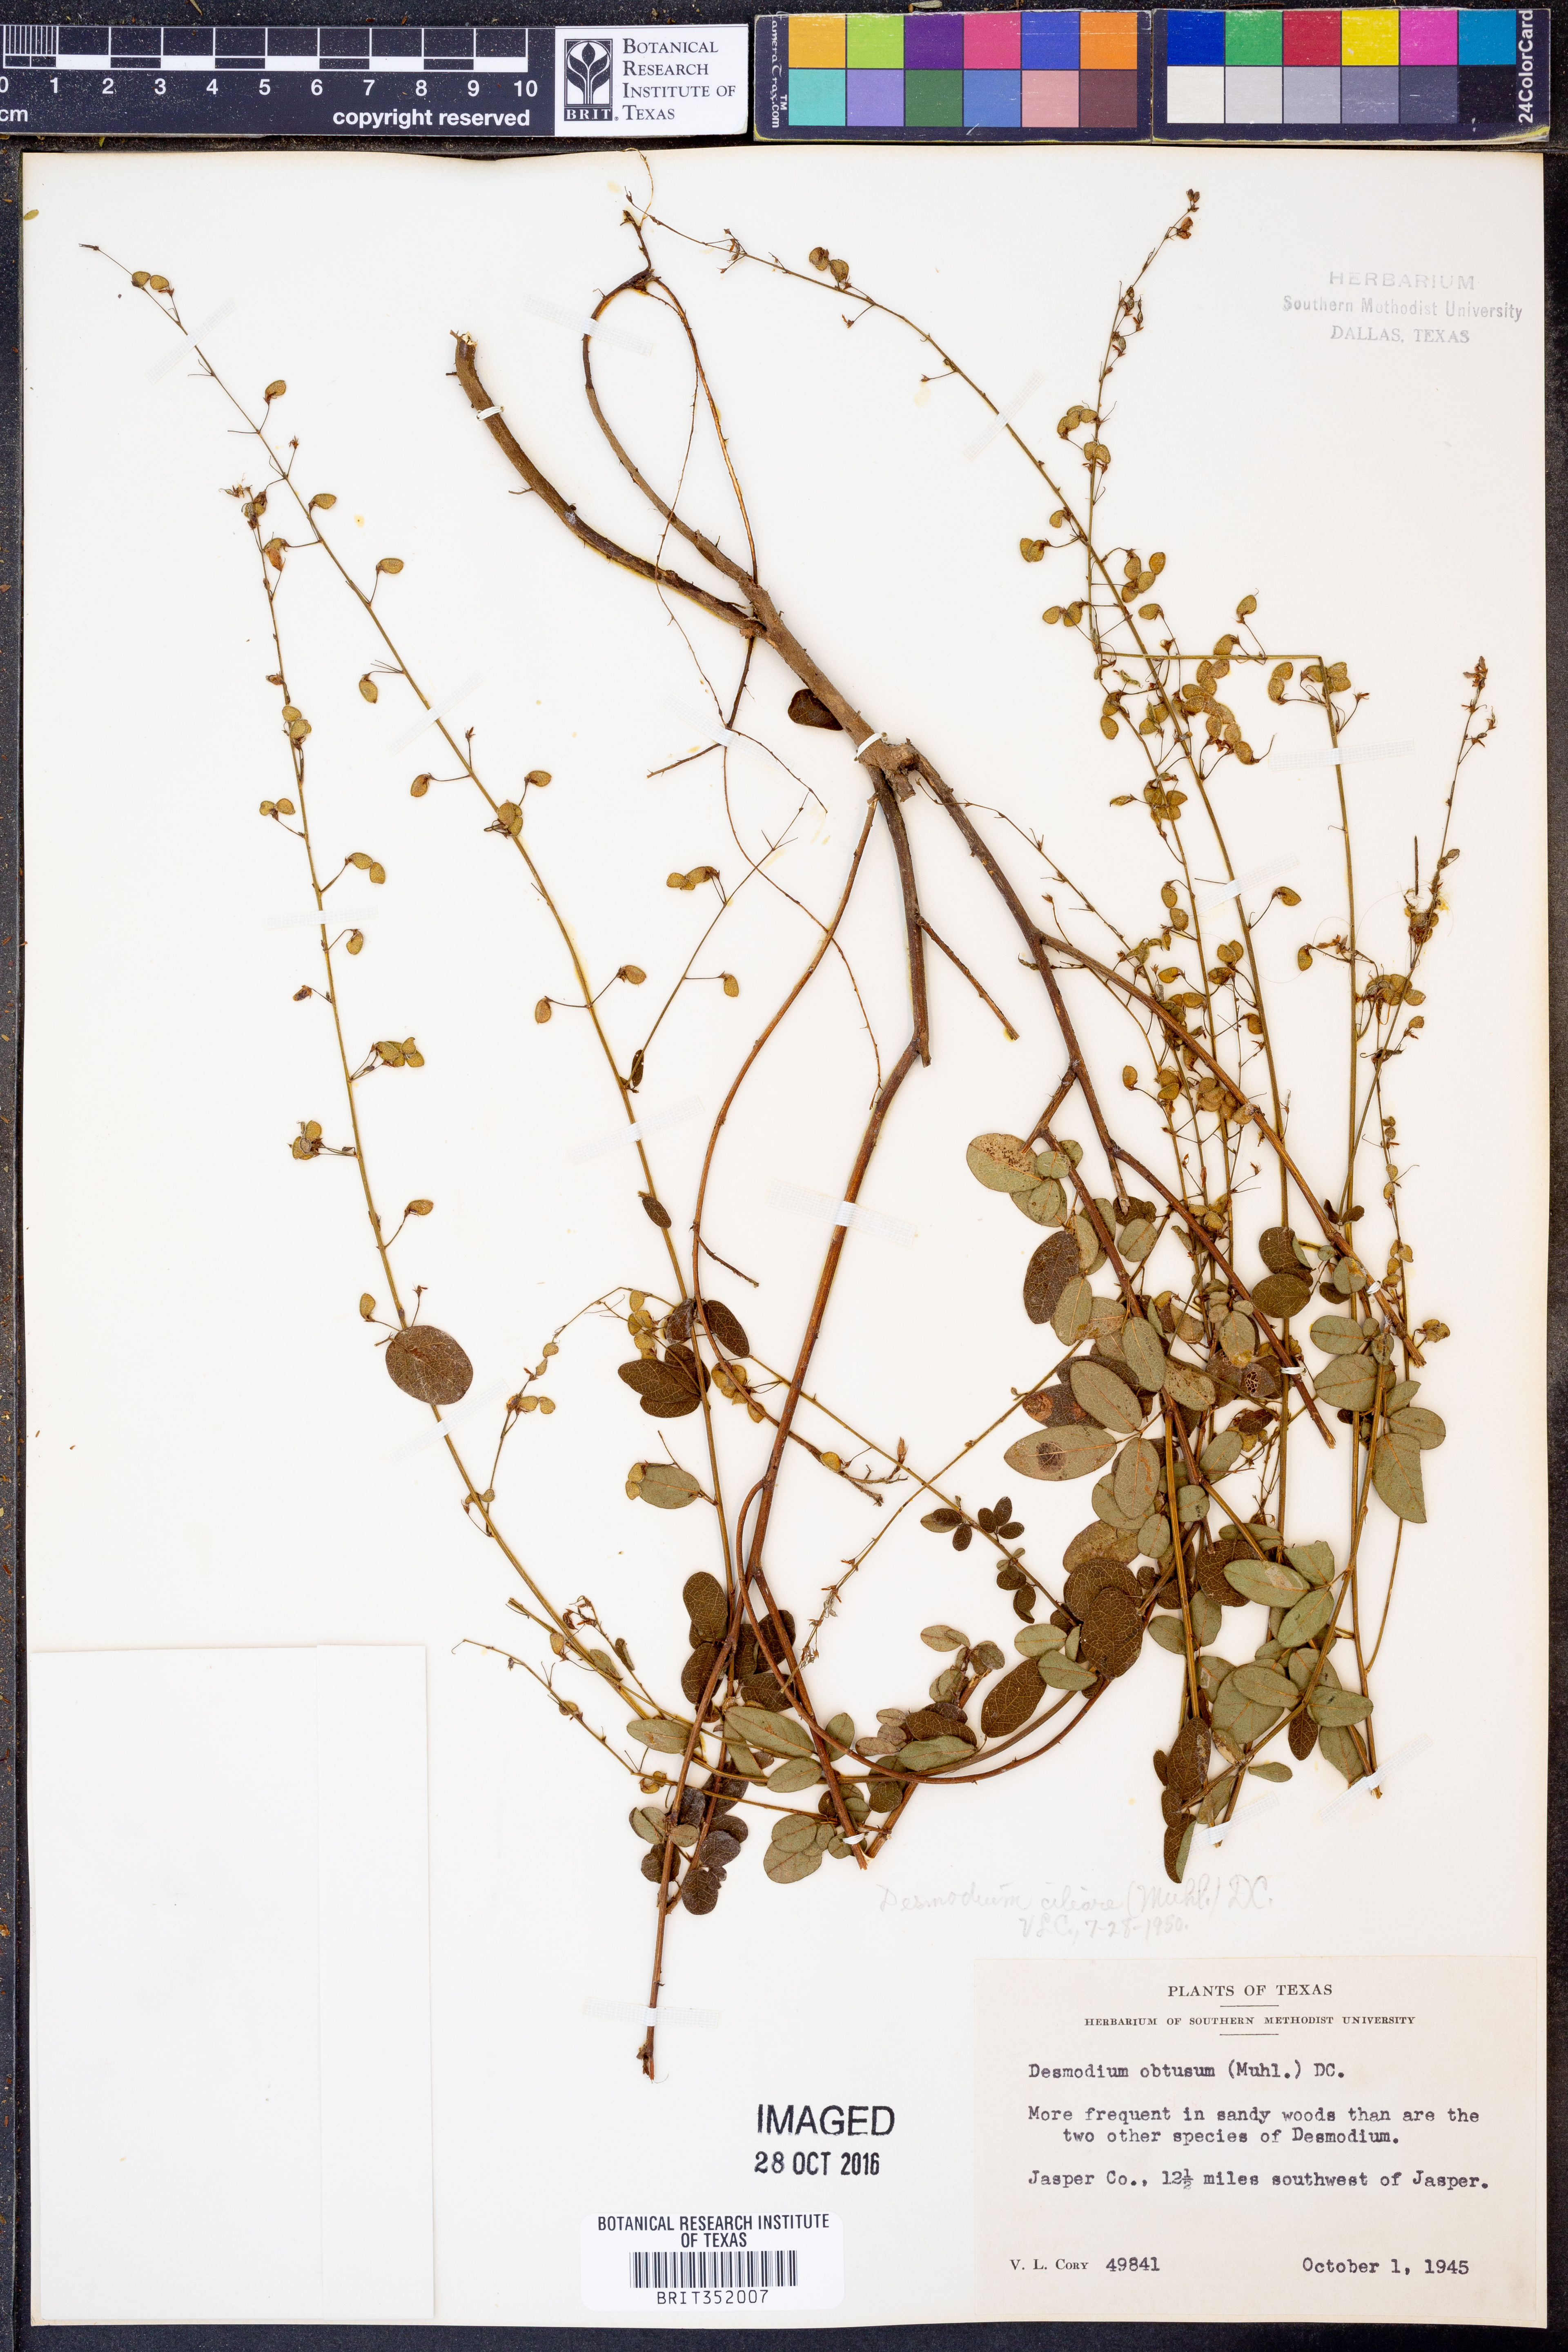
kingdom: Plantae
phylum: Tracheophyta
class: Magnoliopsida
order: Fabales
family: Fabaceae
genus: Desmodium
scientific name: Desmodium ciliare
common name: Hairy small-leaf ticktrefoil
